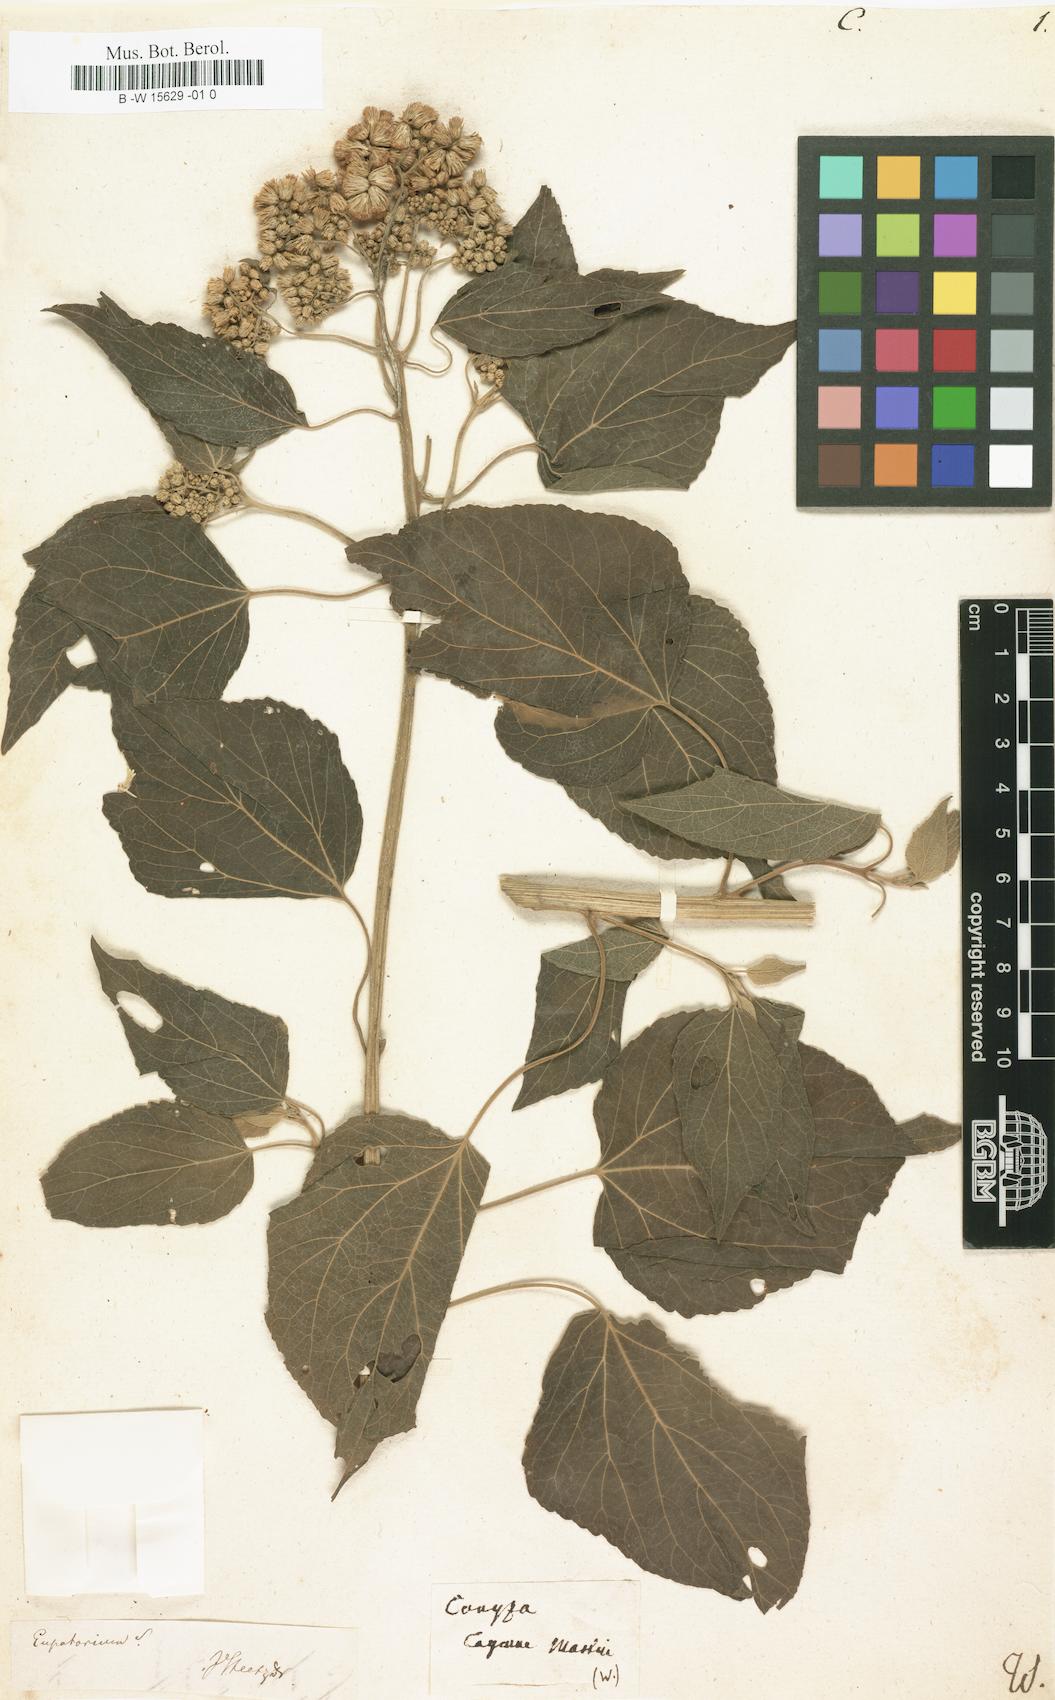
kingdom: Plantae
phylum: Tracheophyta
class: Magnoliopsida
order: Asterales
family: Asteraceae
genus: Conyza
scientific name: Conyza
